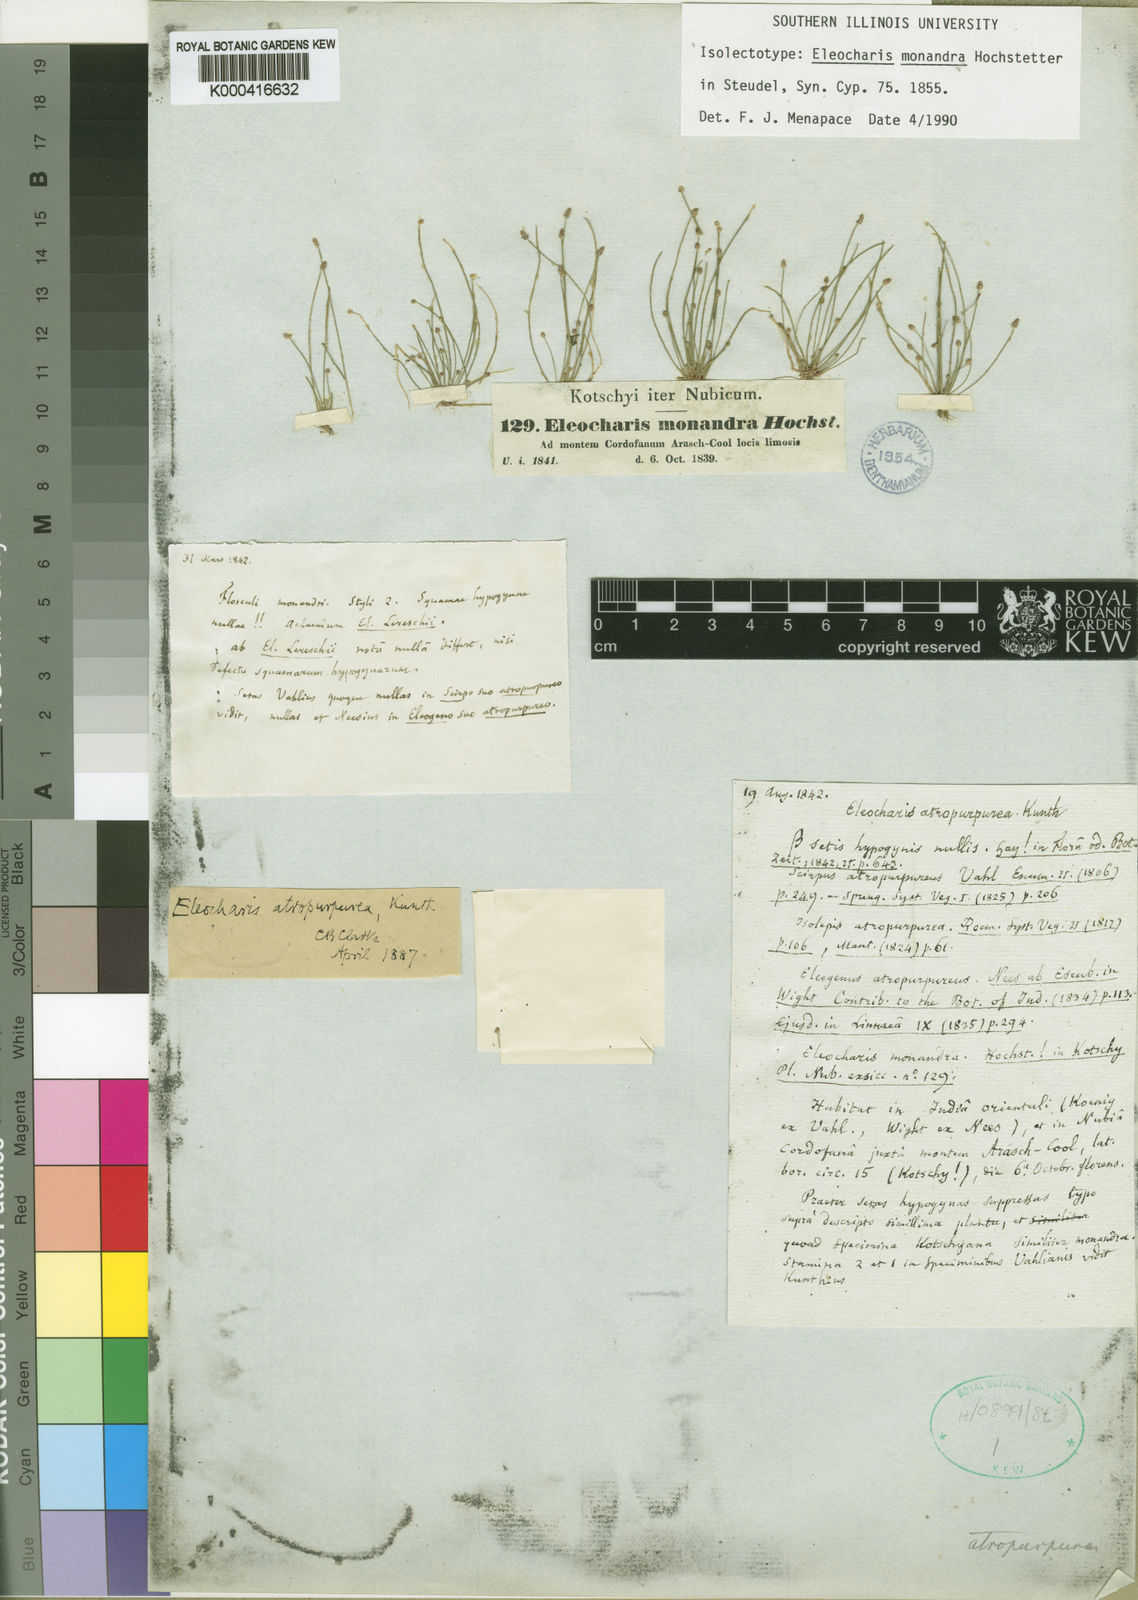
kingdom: Plantae
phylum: Tracheophyta
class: Liliopsida
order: Poales
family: Cyperaceae
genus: Eleocharis
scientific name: Eleocharis
